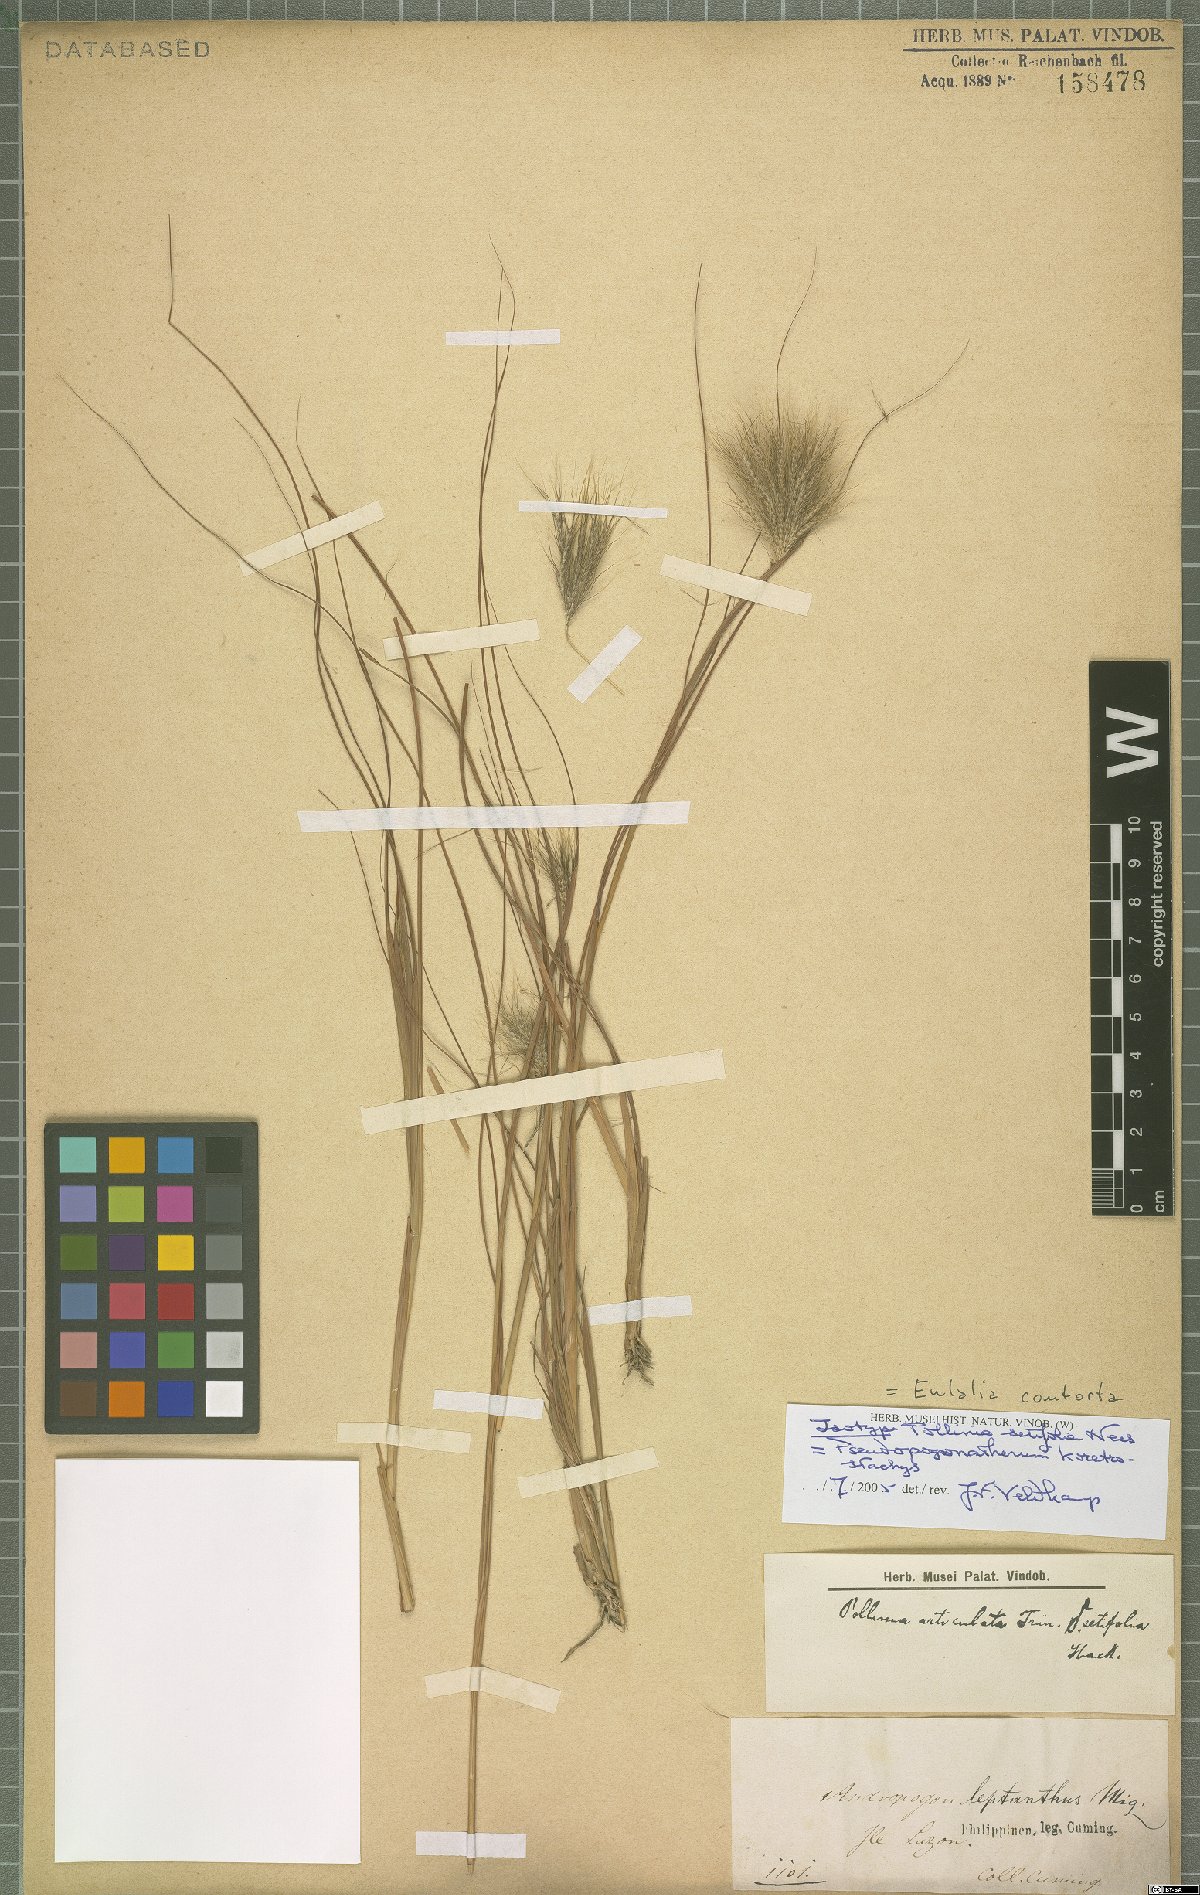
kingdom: Plantae
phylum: Tracheophyta
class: Liliopsida
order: Poales
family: Poaceae
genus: Pseudopogonatherum
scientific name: Pseudopogonatherum contortum
